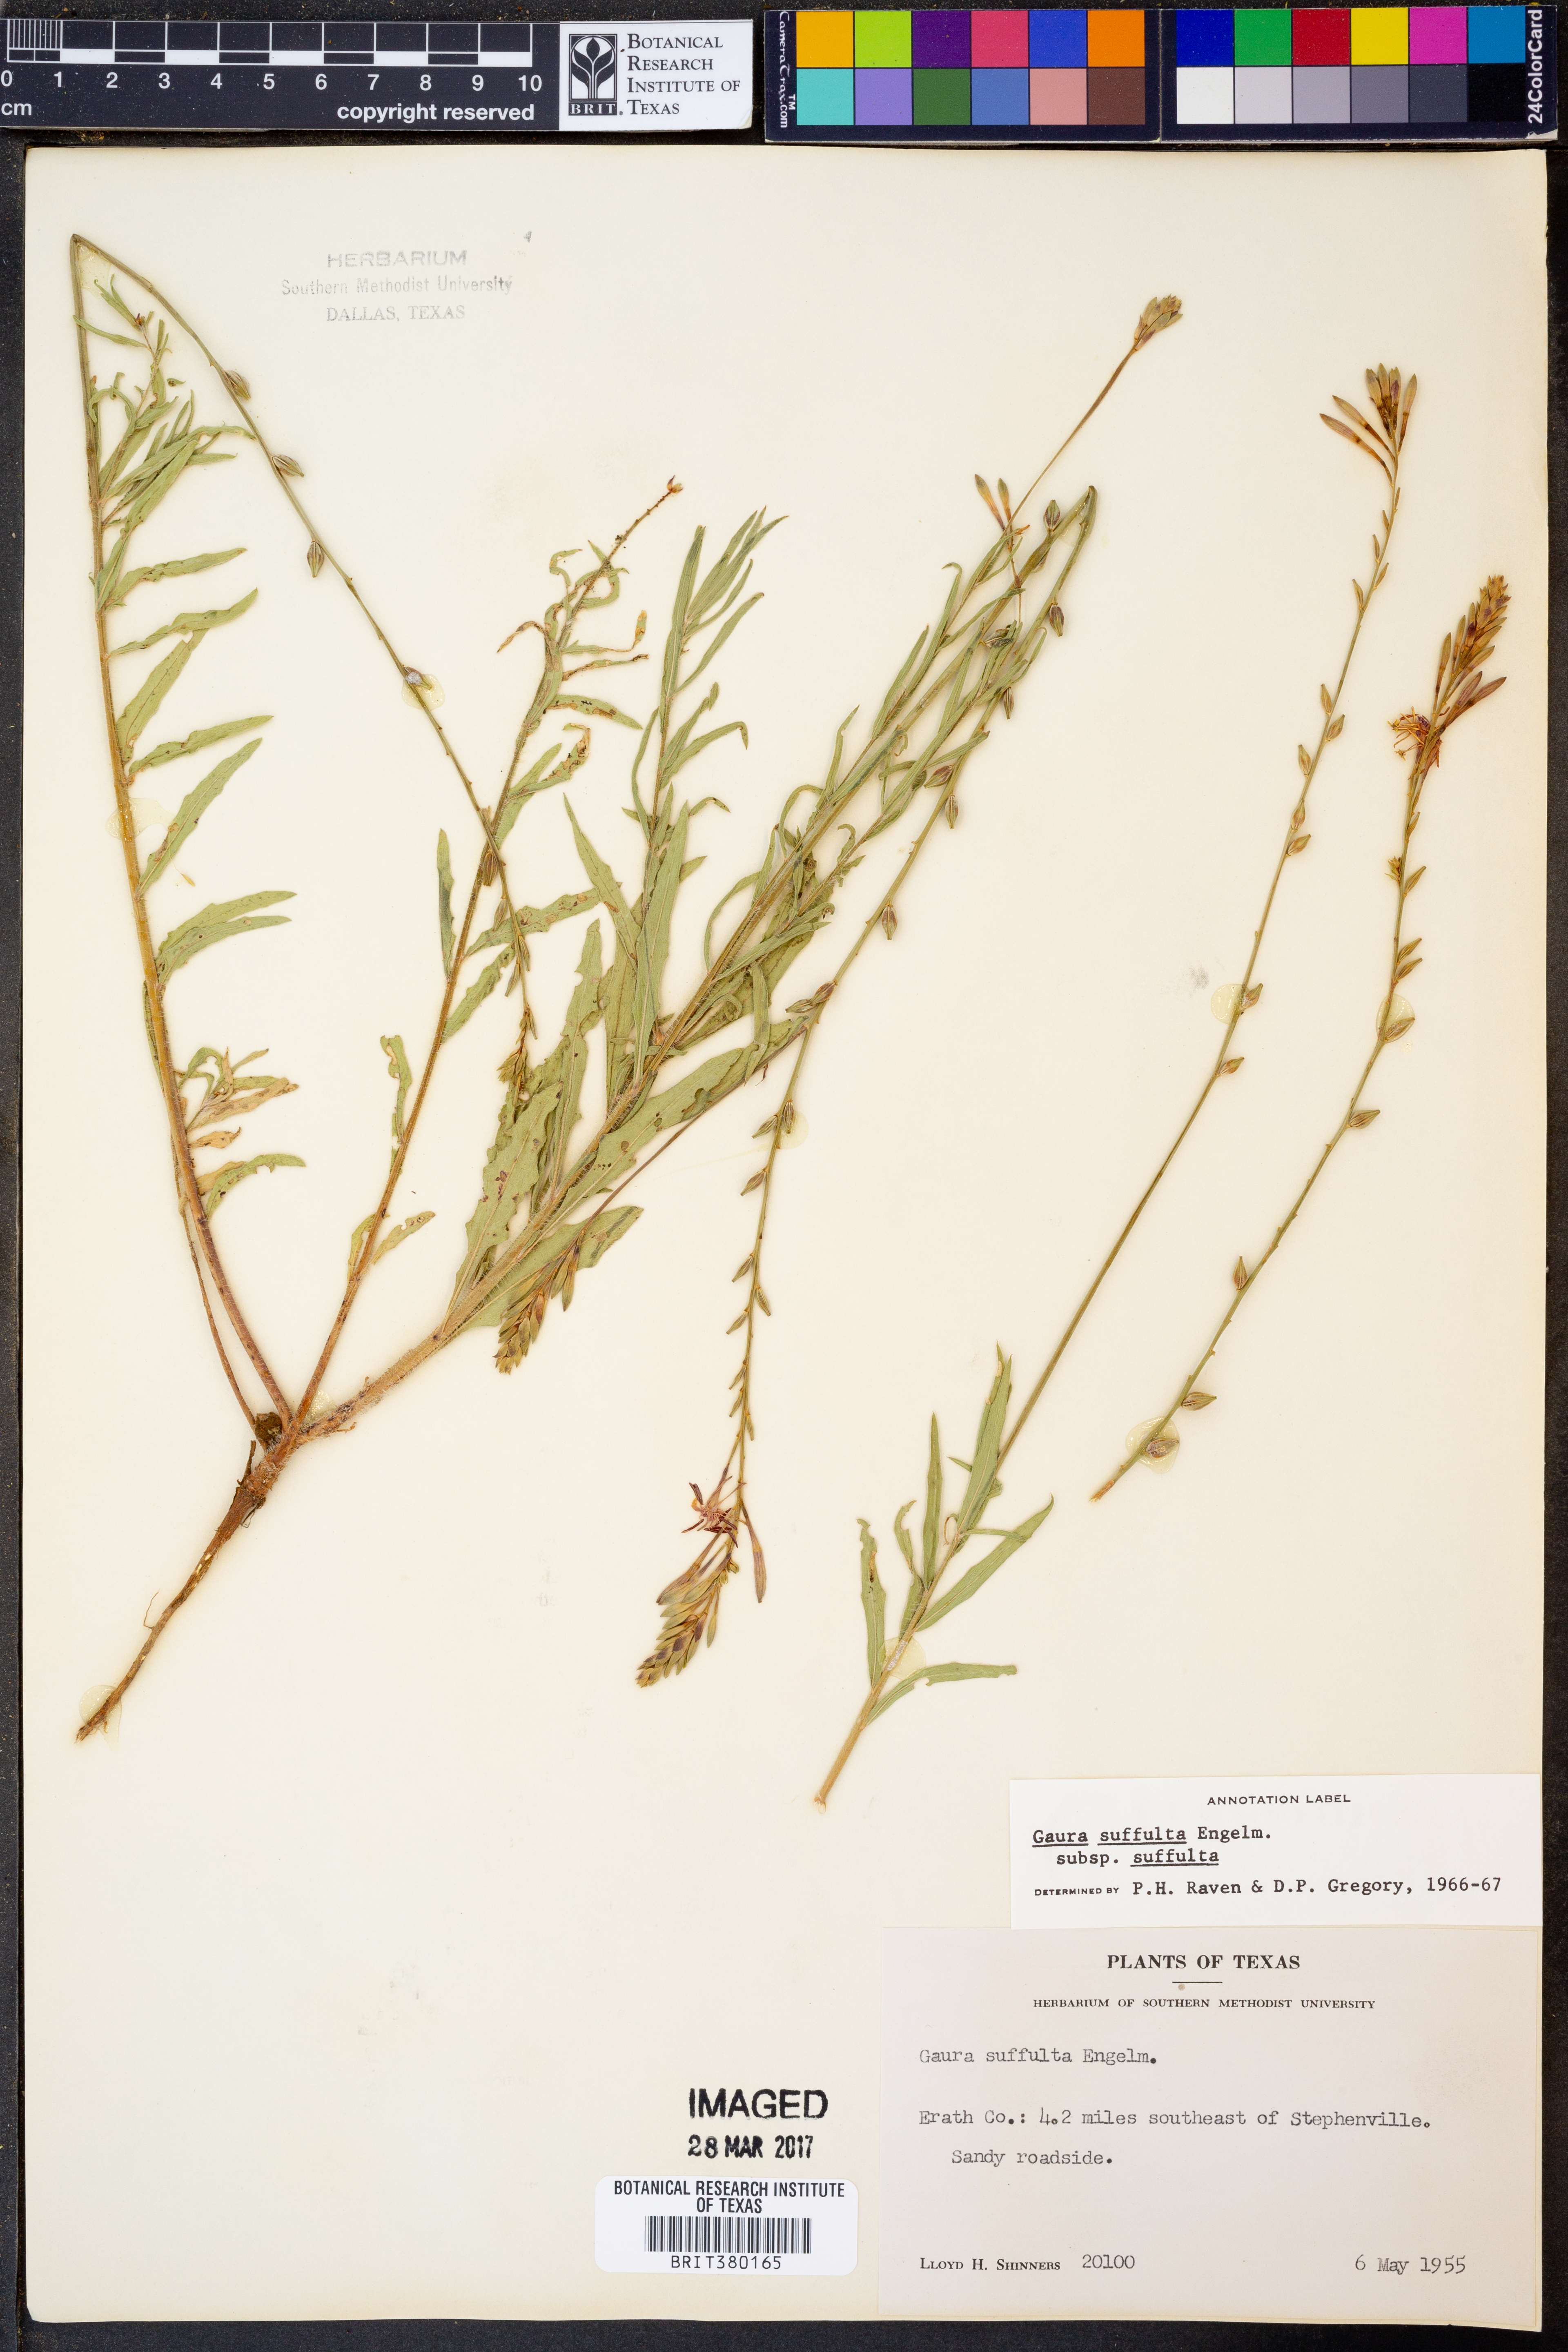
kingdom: Plantae
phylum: Tracheophyta
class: Magnoliopsida
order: Myrtales
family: Onagraceae
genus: Oenothera
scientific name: Oenothera suffulta
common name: Kisses
